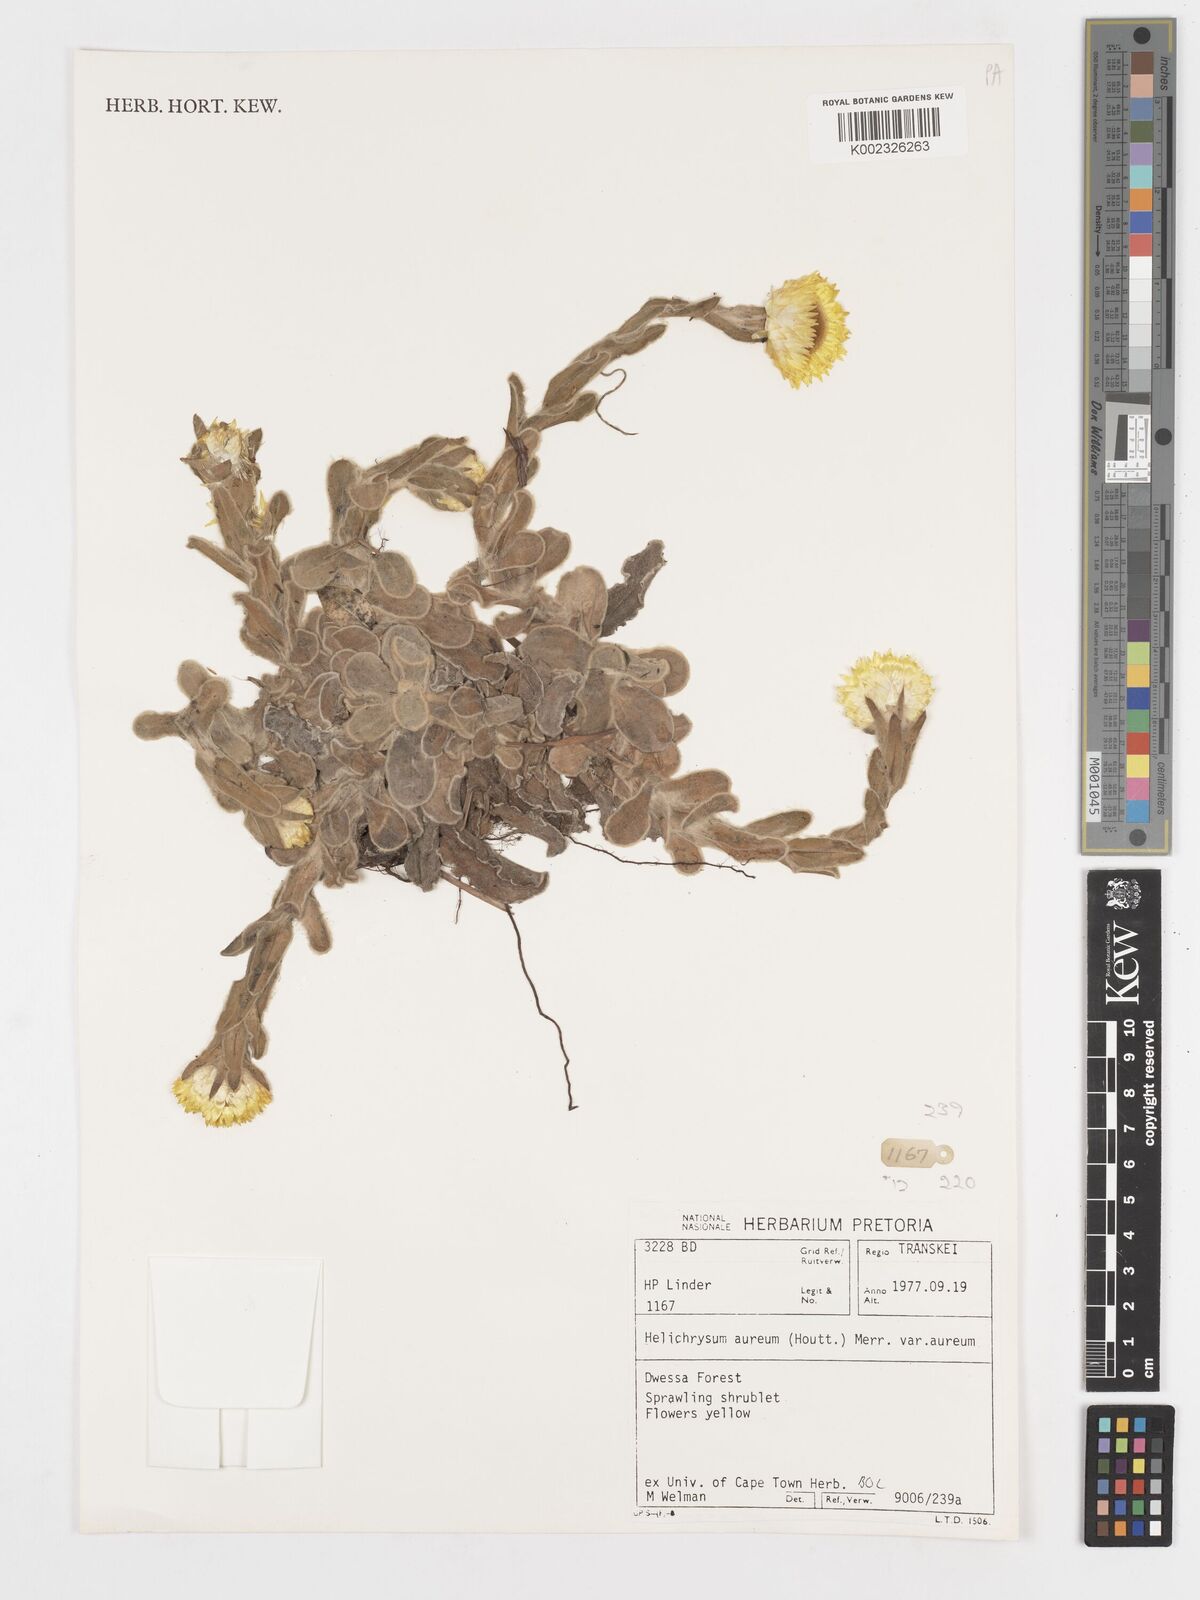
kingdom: Plantae
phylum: Tracheophyta
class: Magnoliopsida
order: Asterales
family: Asteraceae
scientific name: Asteraceae
